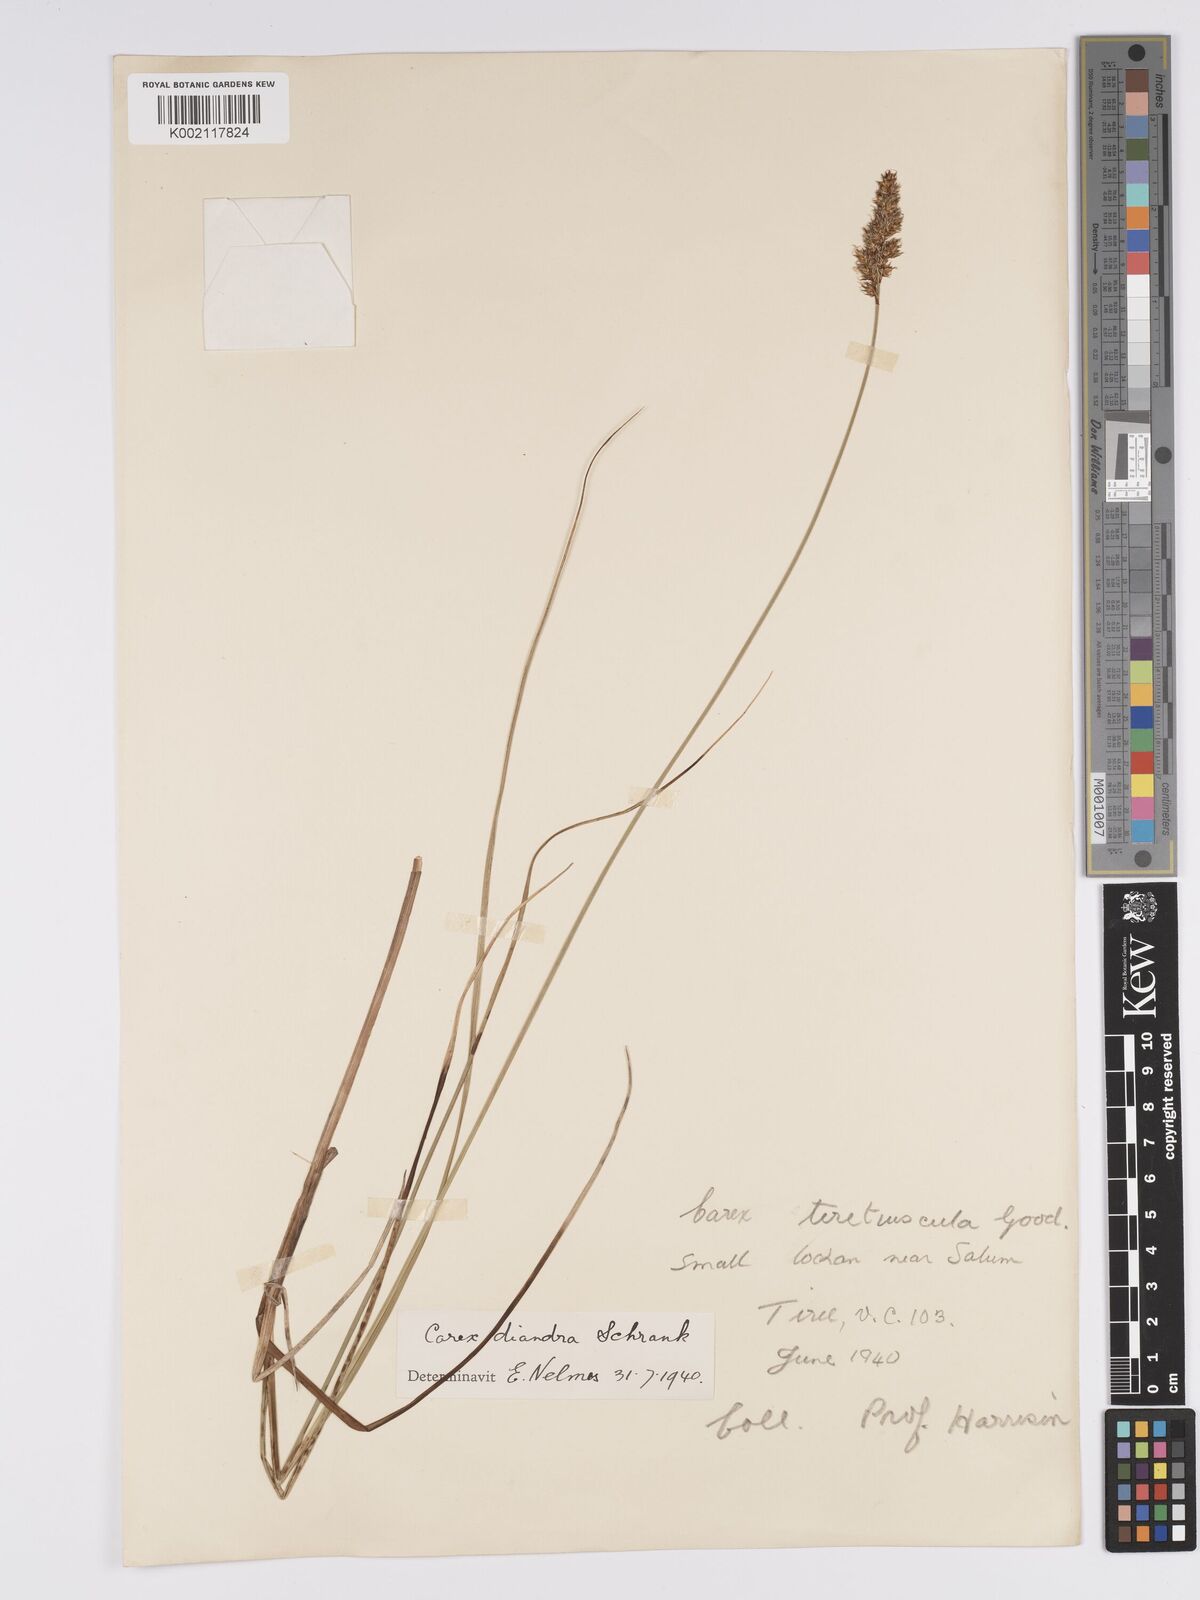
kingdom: Plantae
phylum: Tracheophyta
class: Liliopsida
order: Poales
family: Cyperaceae
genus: Carex
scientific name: Carex diandra
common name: Lesser tussock-sedge
